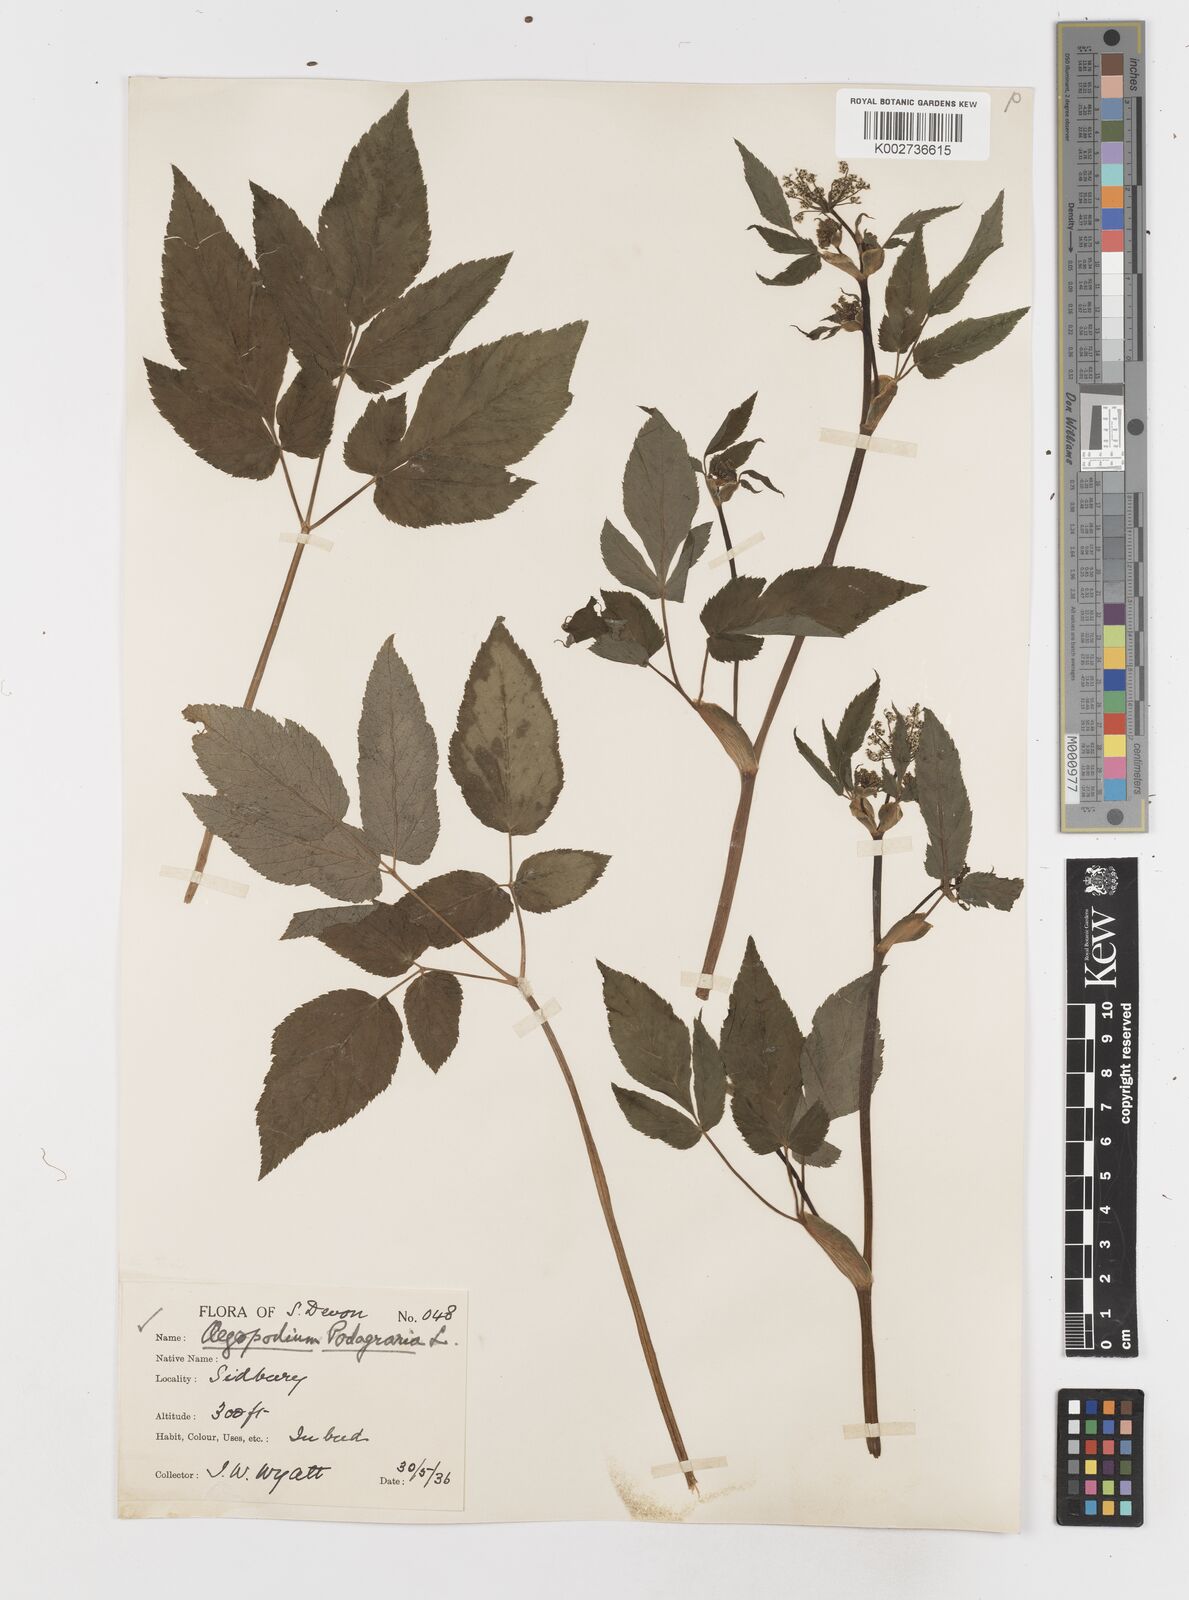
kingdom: Plantae
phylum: Tracheophyta
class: Magnoliopsida
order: Apiales
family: Apiaceae
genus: Aegopodium
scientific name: Aegopodium
